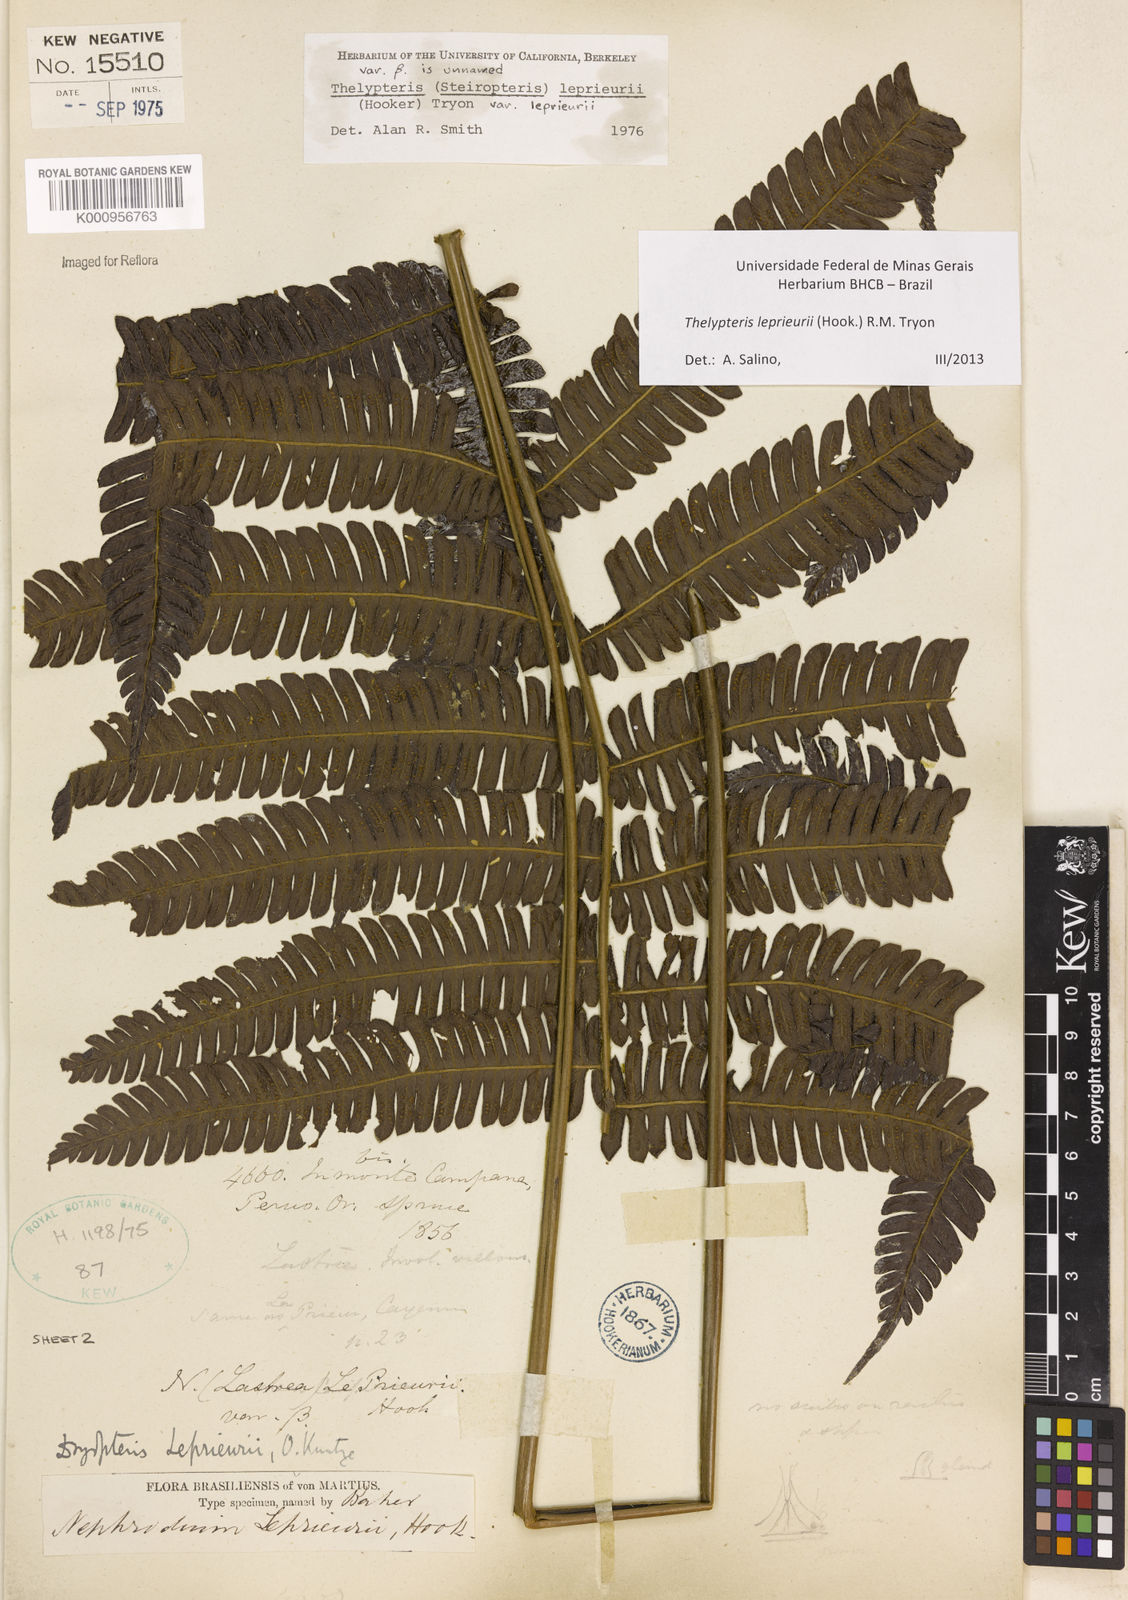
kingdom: Plantae
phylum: Tracheophyta
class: Polypodiopsida
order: Polypodiales
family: Thelypteridaceae
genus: Steiropteris
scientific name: Steiropteris leprieurii
